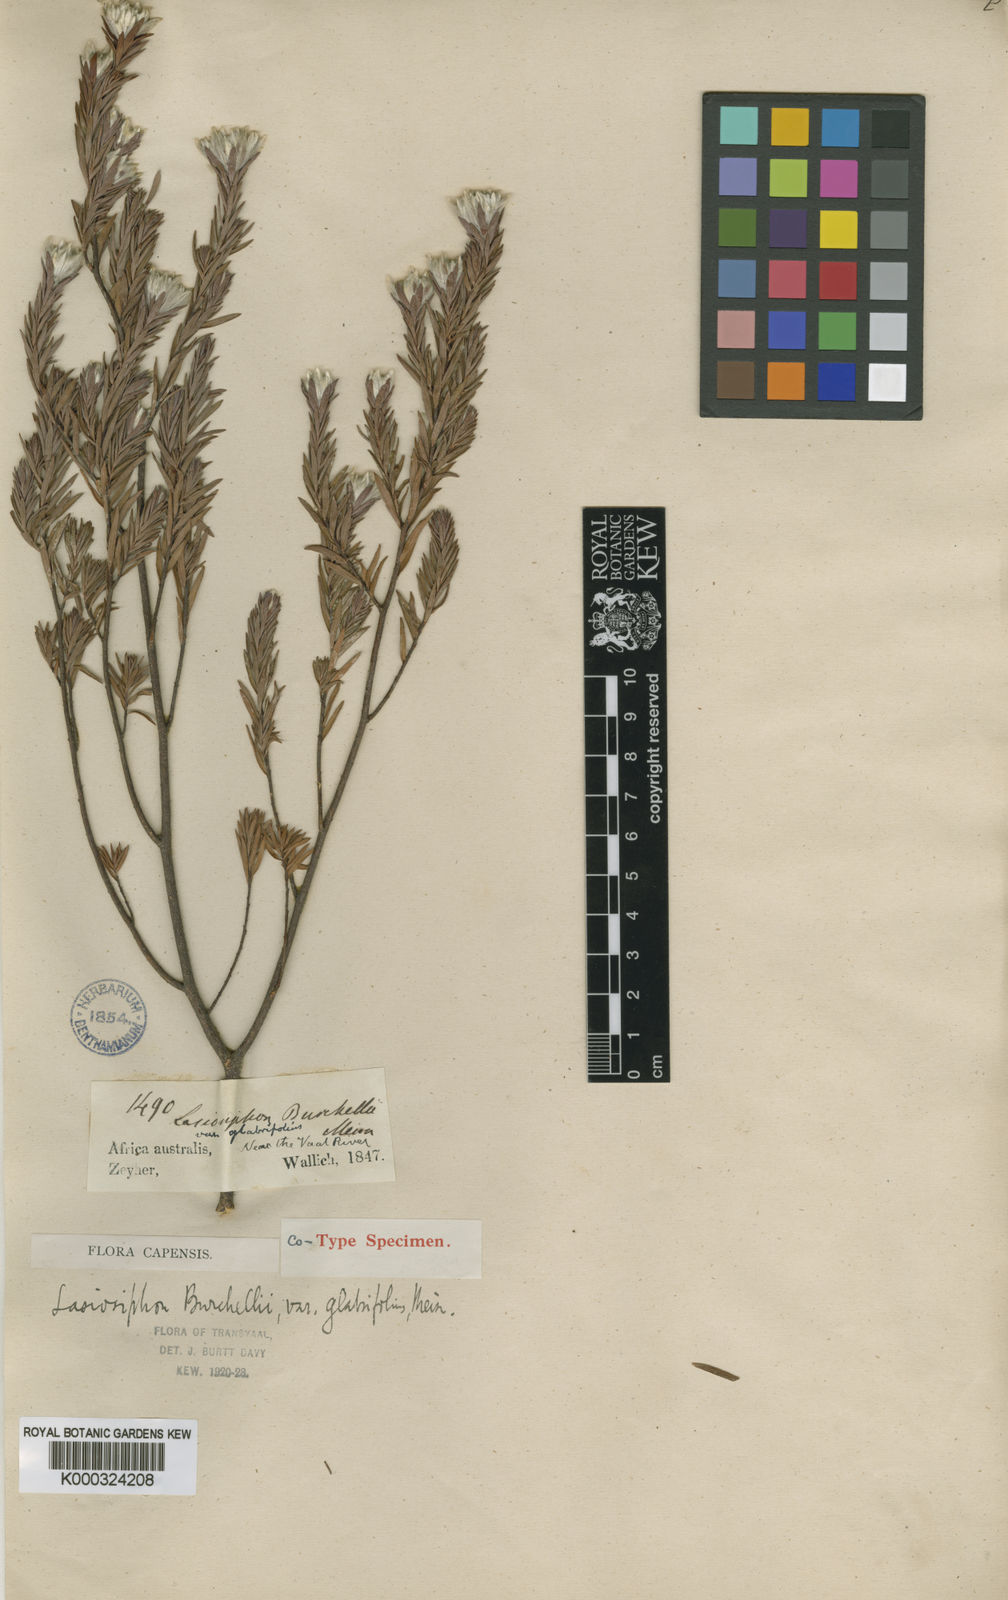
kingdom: Plantae
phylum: Tracheophyta
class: Magnoliopsida
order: Malvales
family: Thymelaeaceae
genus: Gnidia
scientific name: Gnidia burchellii
